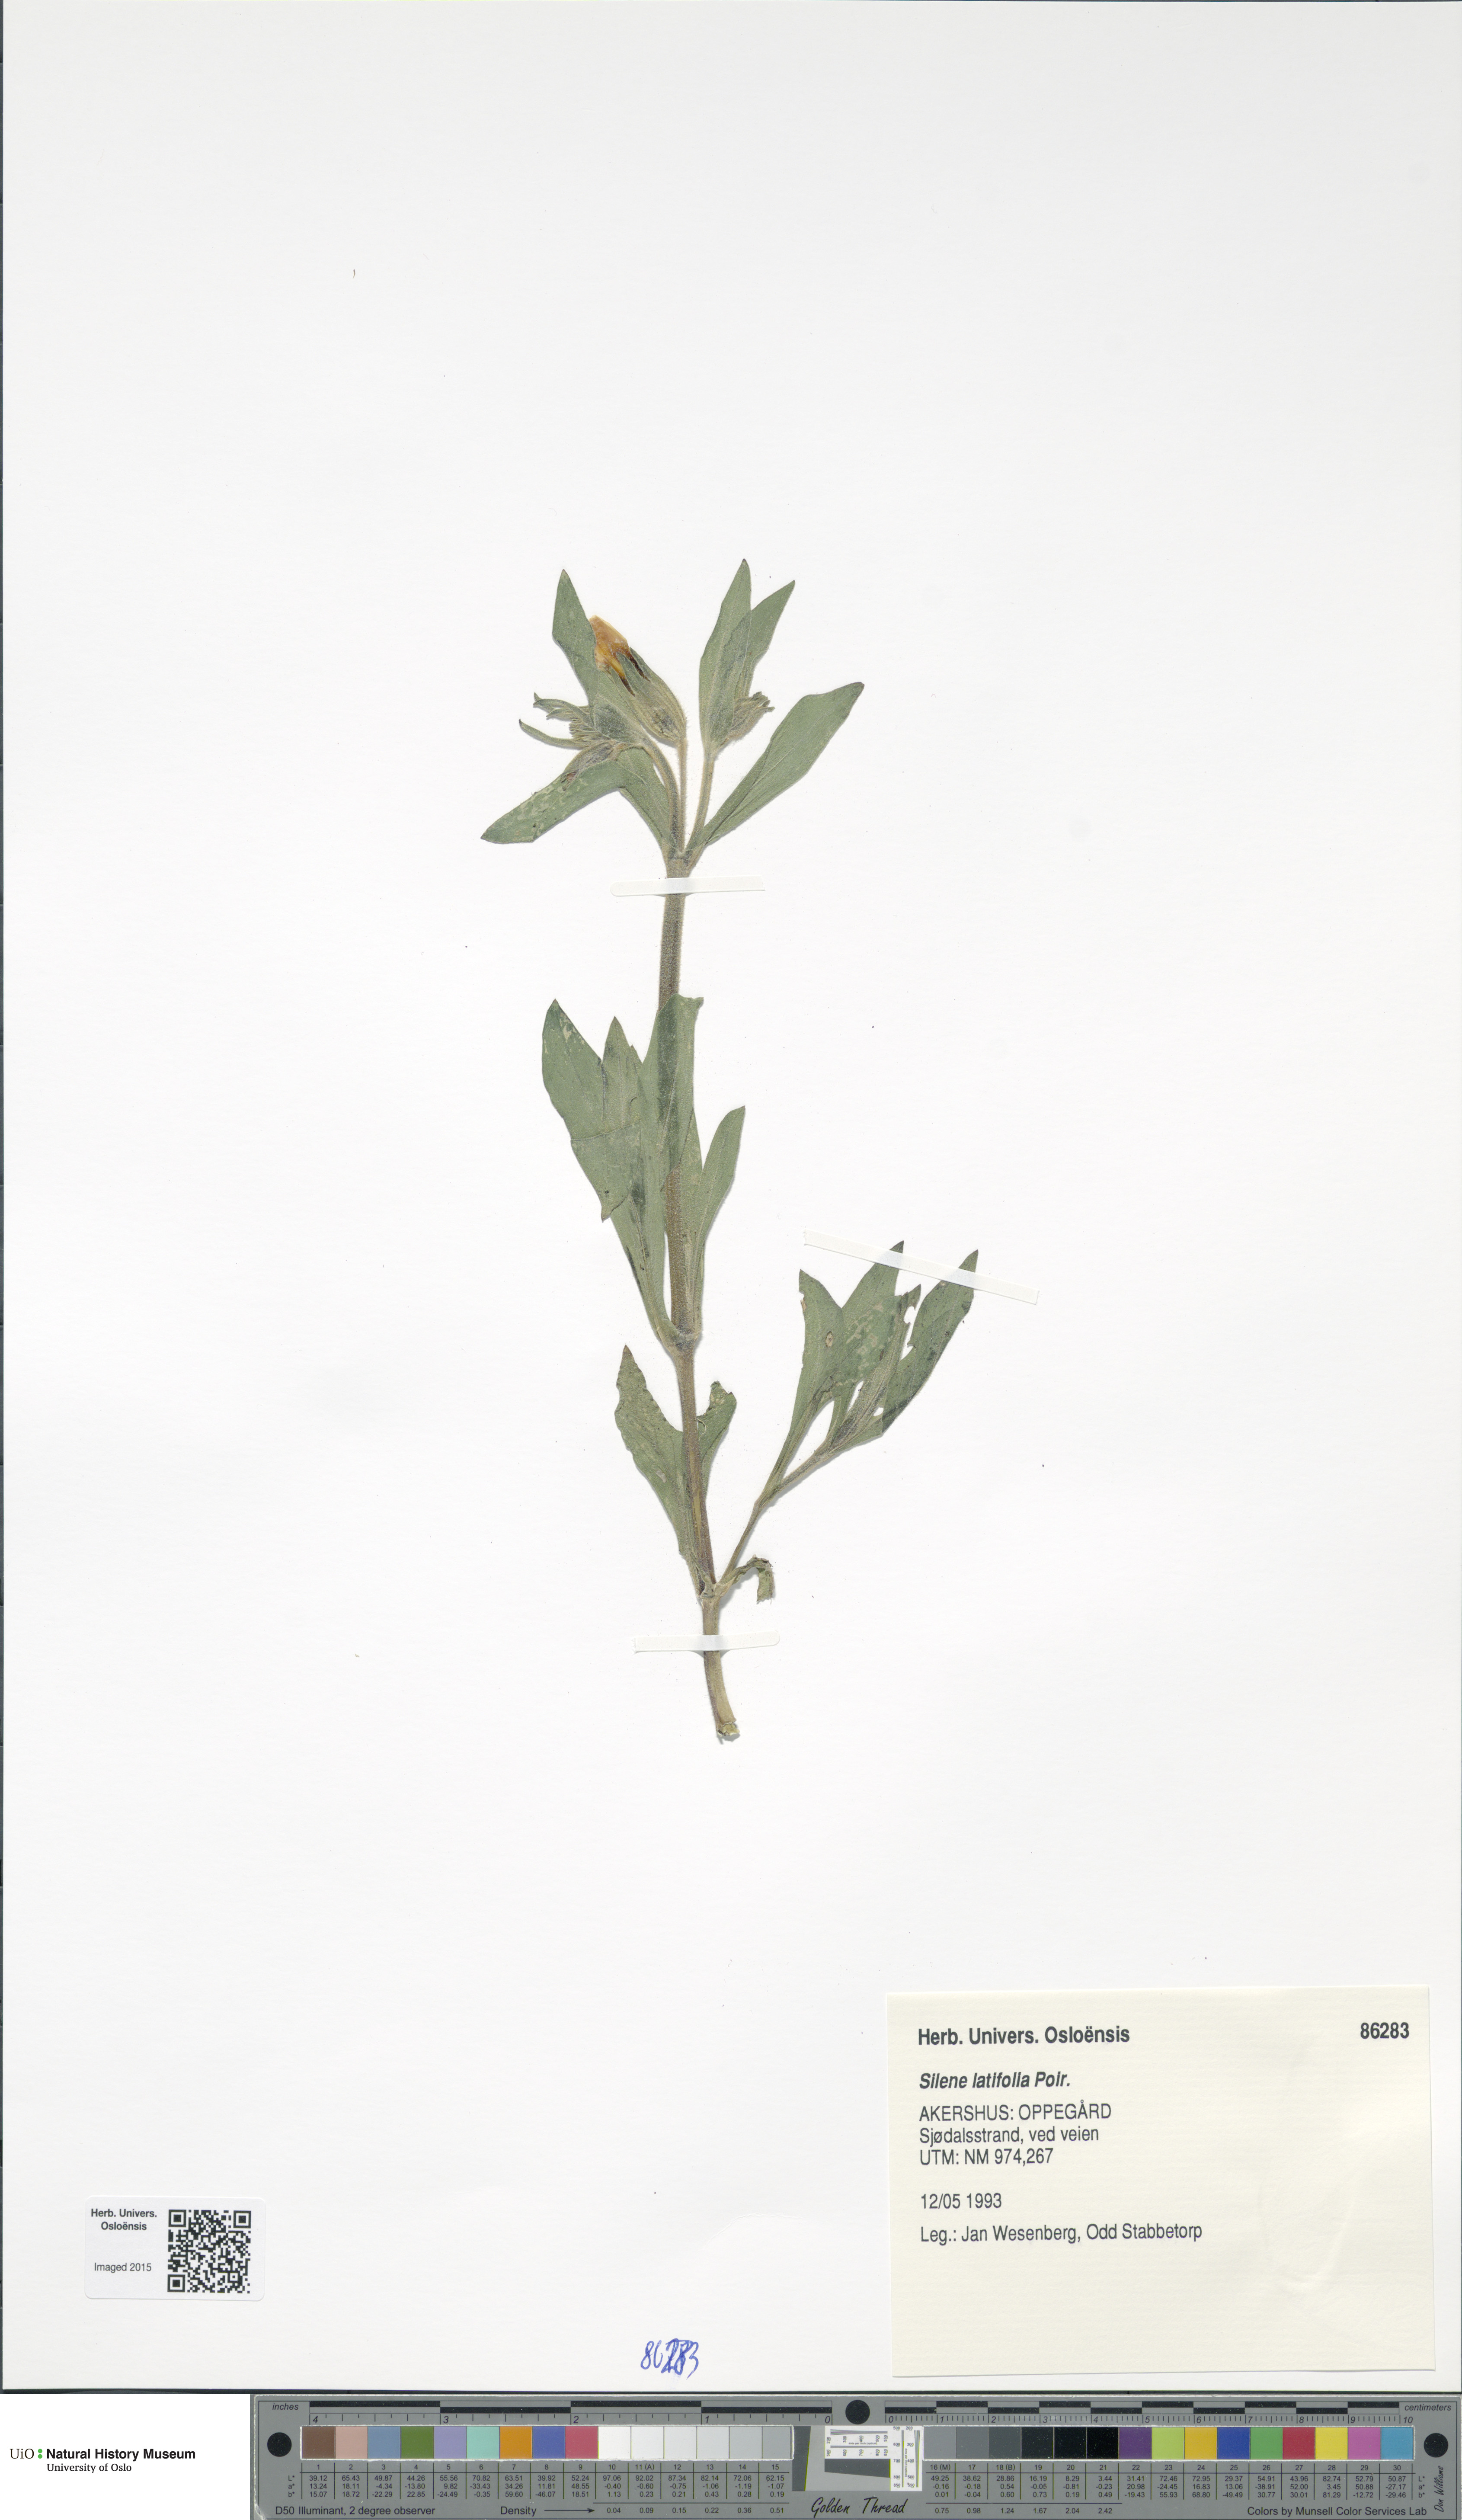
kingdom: Plantae
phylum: Tracheophyta
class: Magnoliopsida
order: Caryophyllales
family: Caryophyllaceae
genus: Silene
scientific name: Silene vulgaris
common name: Bladder campion
